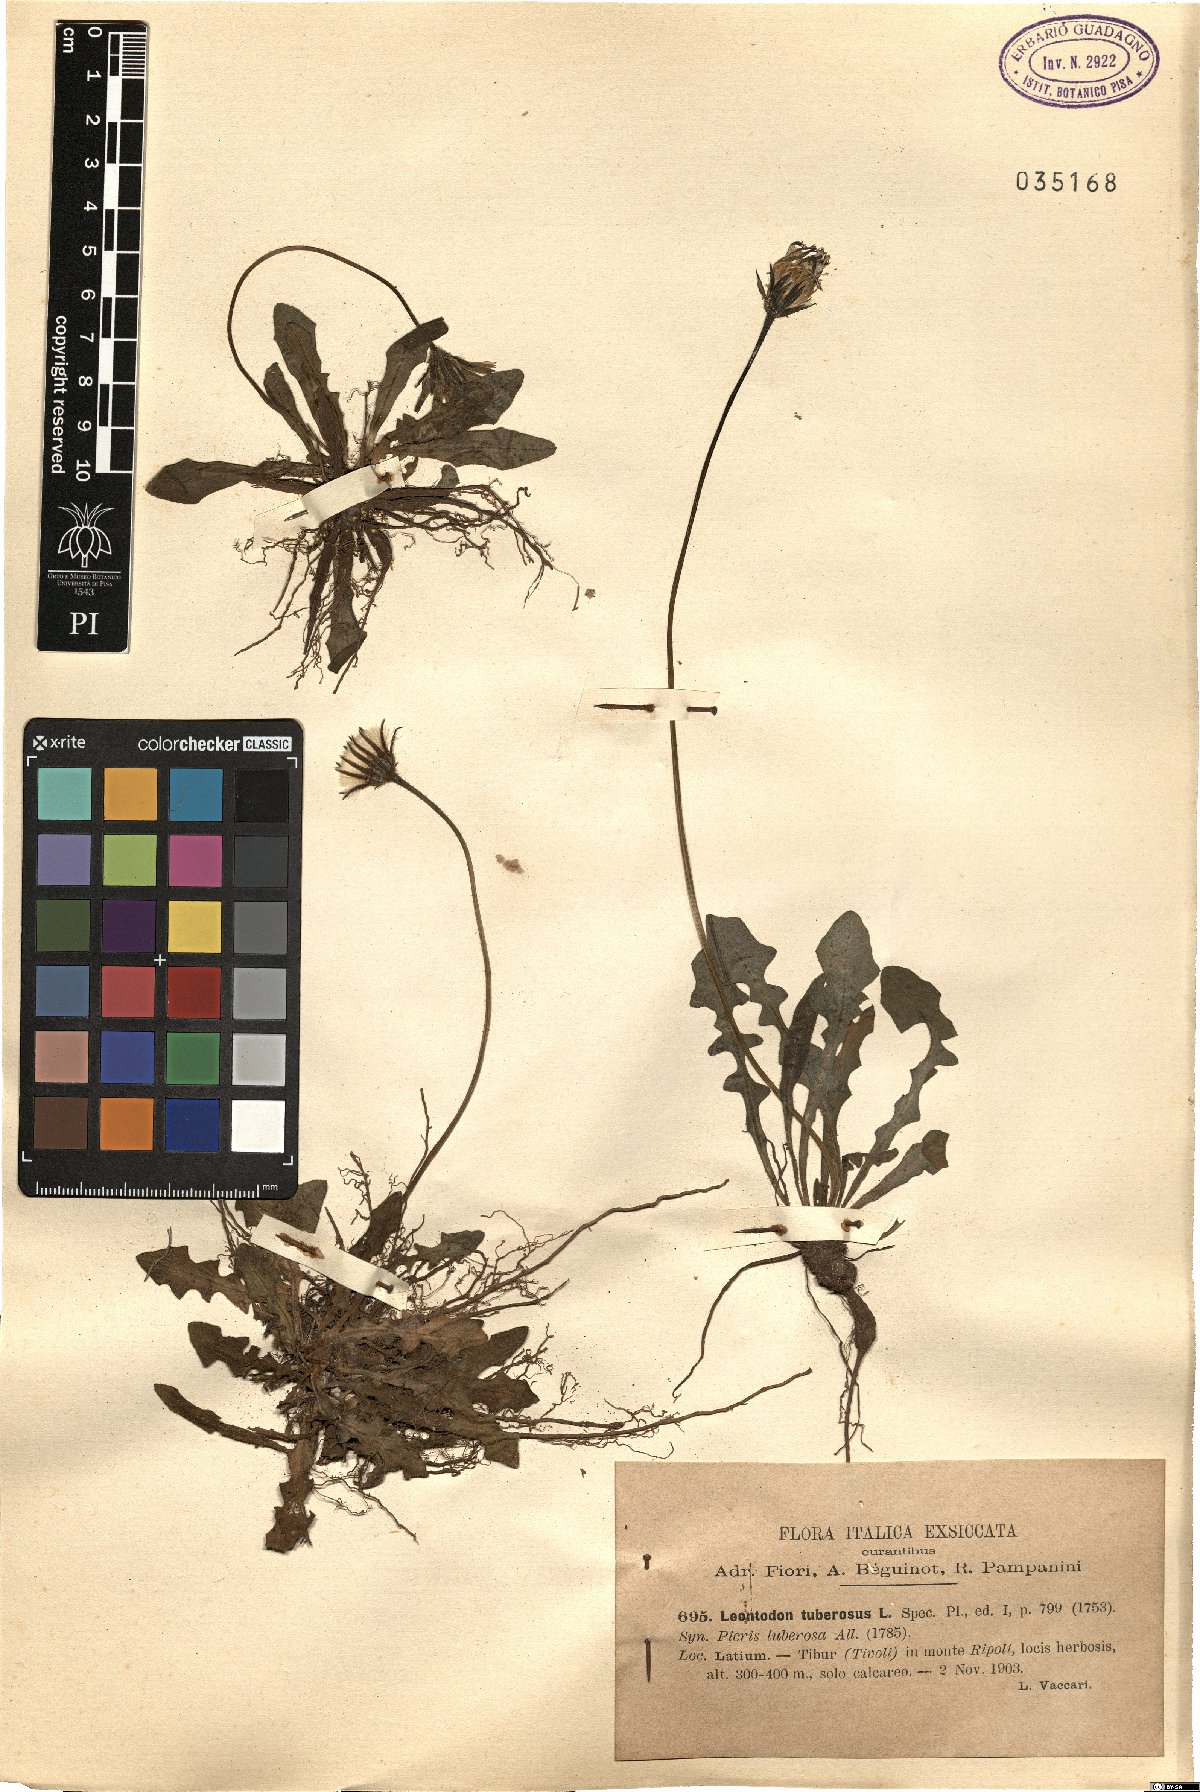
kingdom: Plantae
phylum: Tracheophyta
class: Magnoliopsida
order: Asterales
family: Asteraceae
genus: Thrincia
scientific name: Thrincia tuberosa
